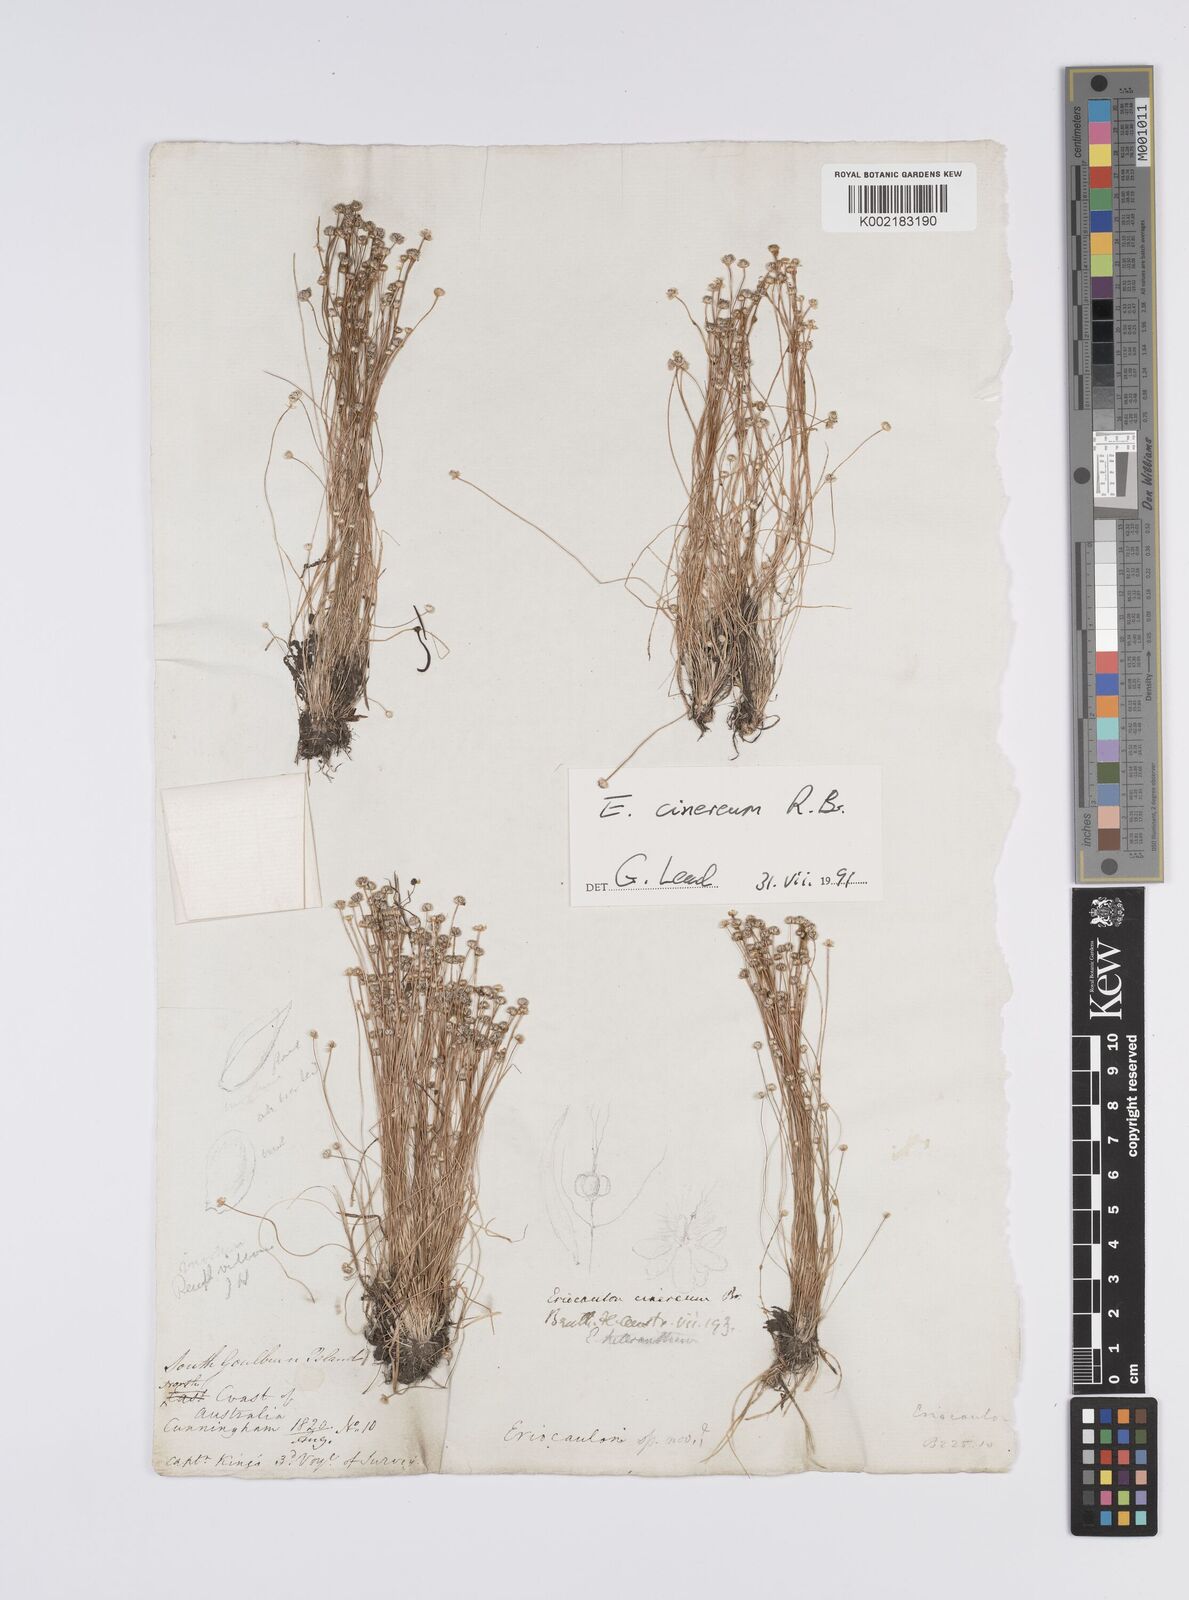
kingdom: Plantae
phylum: Tracheophyta
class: Liliopsida
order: Poales
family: Eriocaulaceae
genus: Eriocaulon
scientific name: Eriocaulon cinereum
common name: Ashy pipewort
